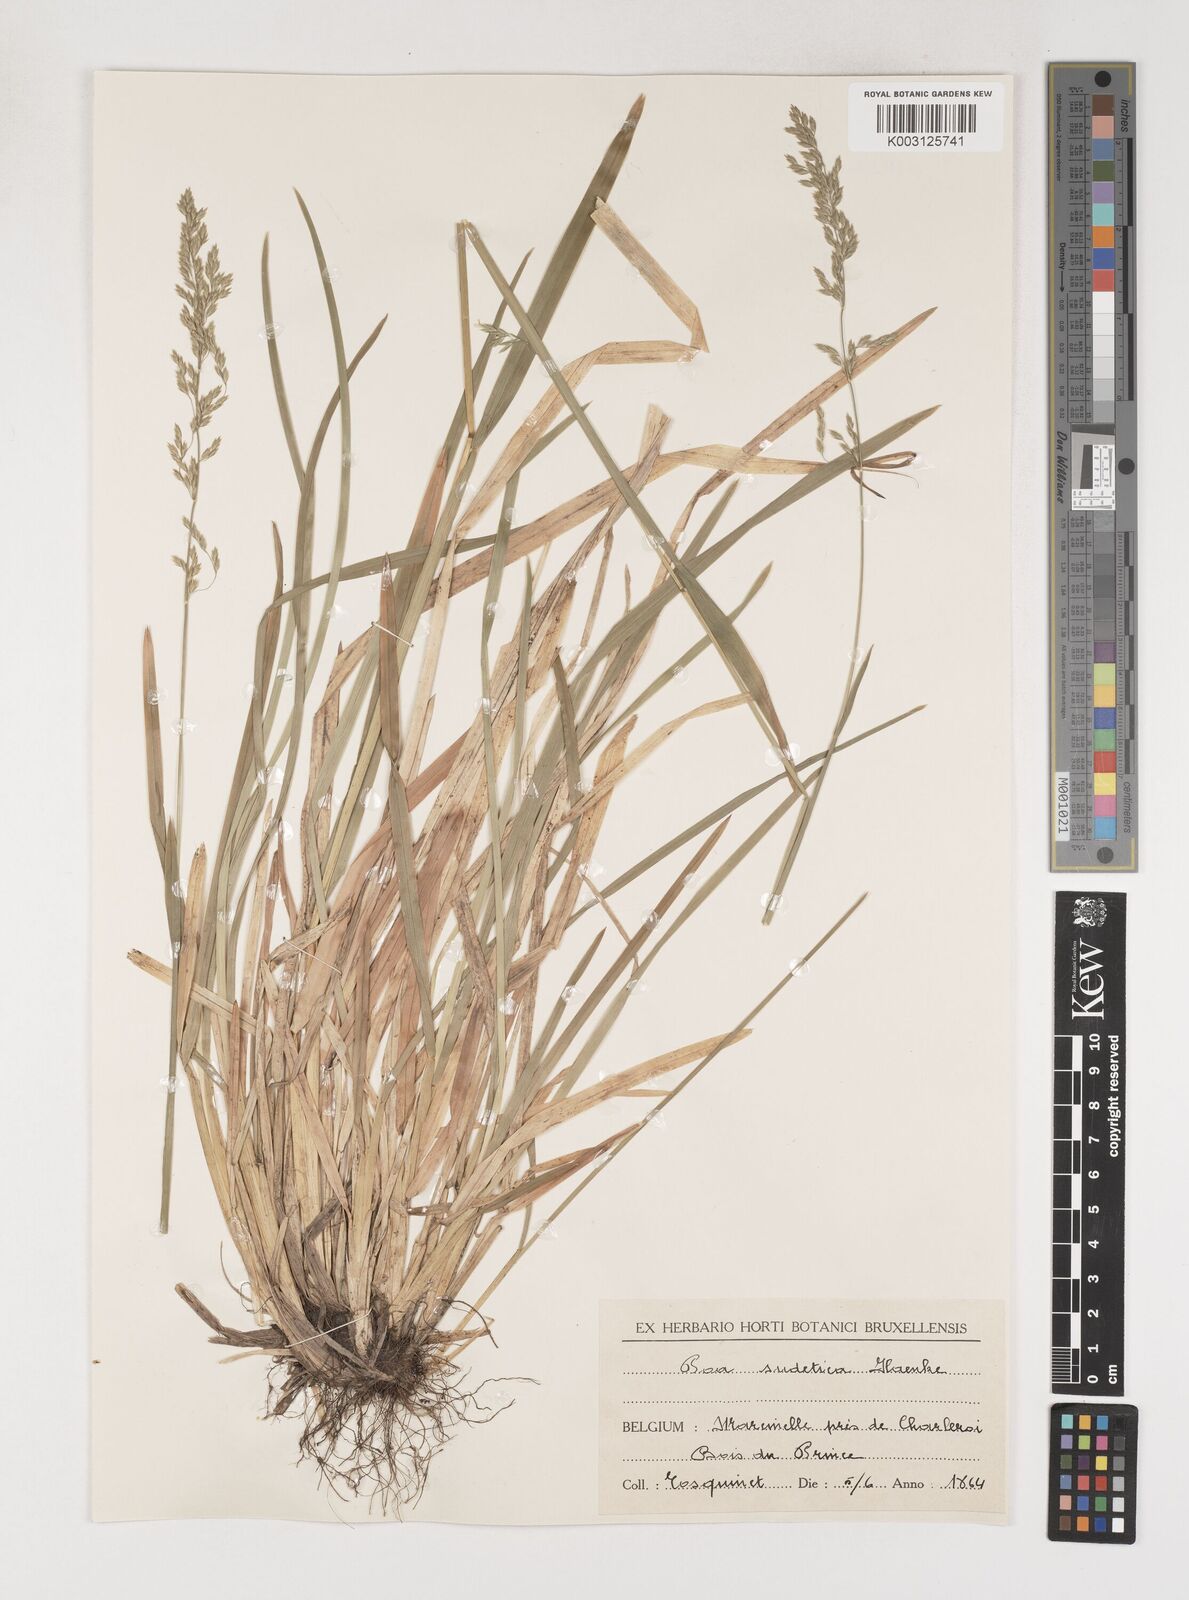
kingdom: Plantae
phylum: Tracheophyta
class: Liliopsida
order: Poales
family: Poaceae
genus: Poa
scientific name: Poa chaixii
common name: Broad-leaved meadow-grass
